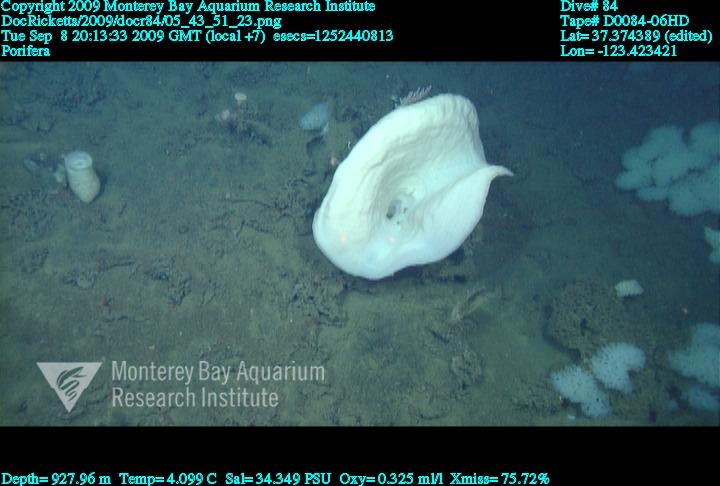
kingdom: Animalia
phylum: Porifera
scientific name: Porifera
